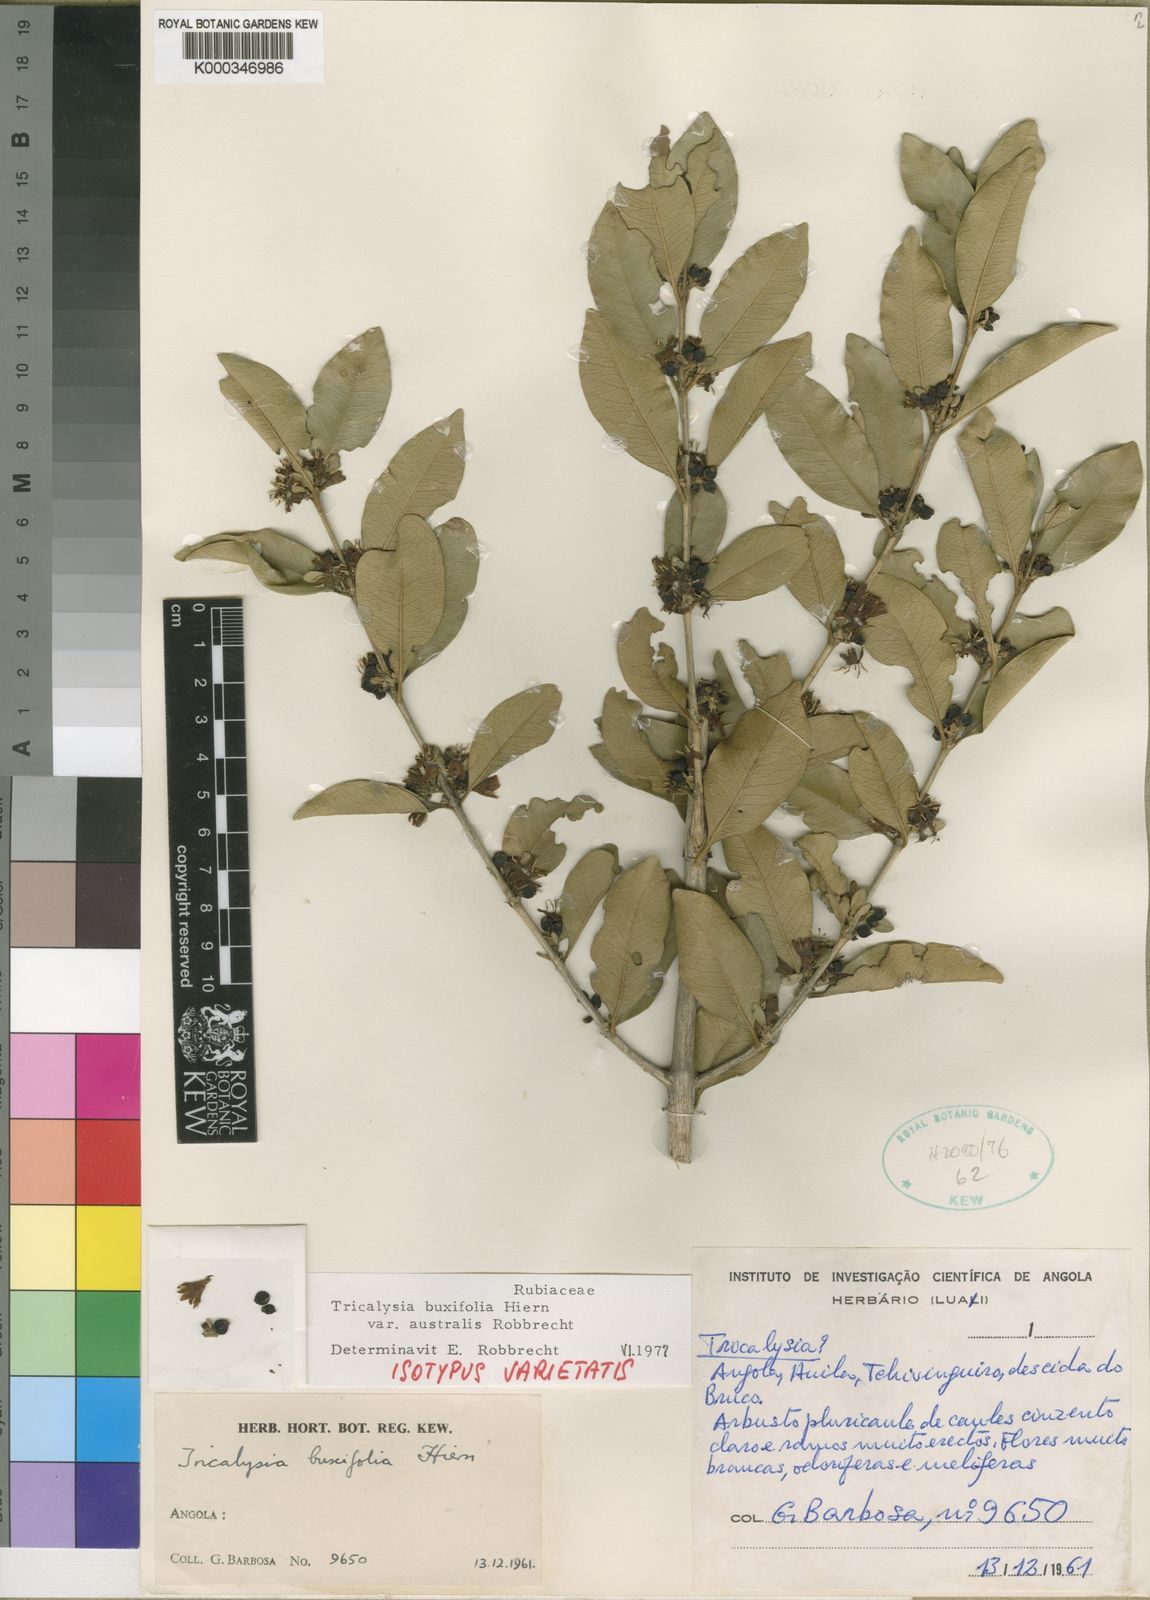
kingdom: Plantae
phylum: Tracheophyta
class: Magnoliopsida
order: Gentianales
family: Rubiaceae
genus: Empogona
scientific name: Empogona buxifolia
